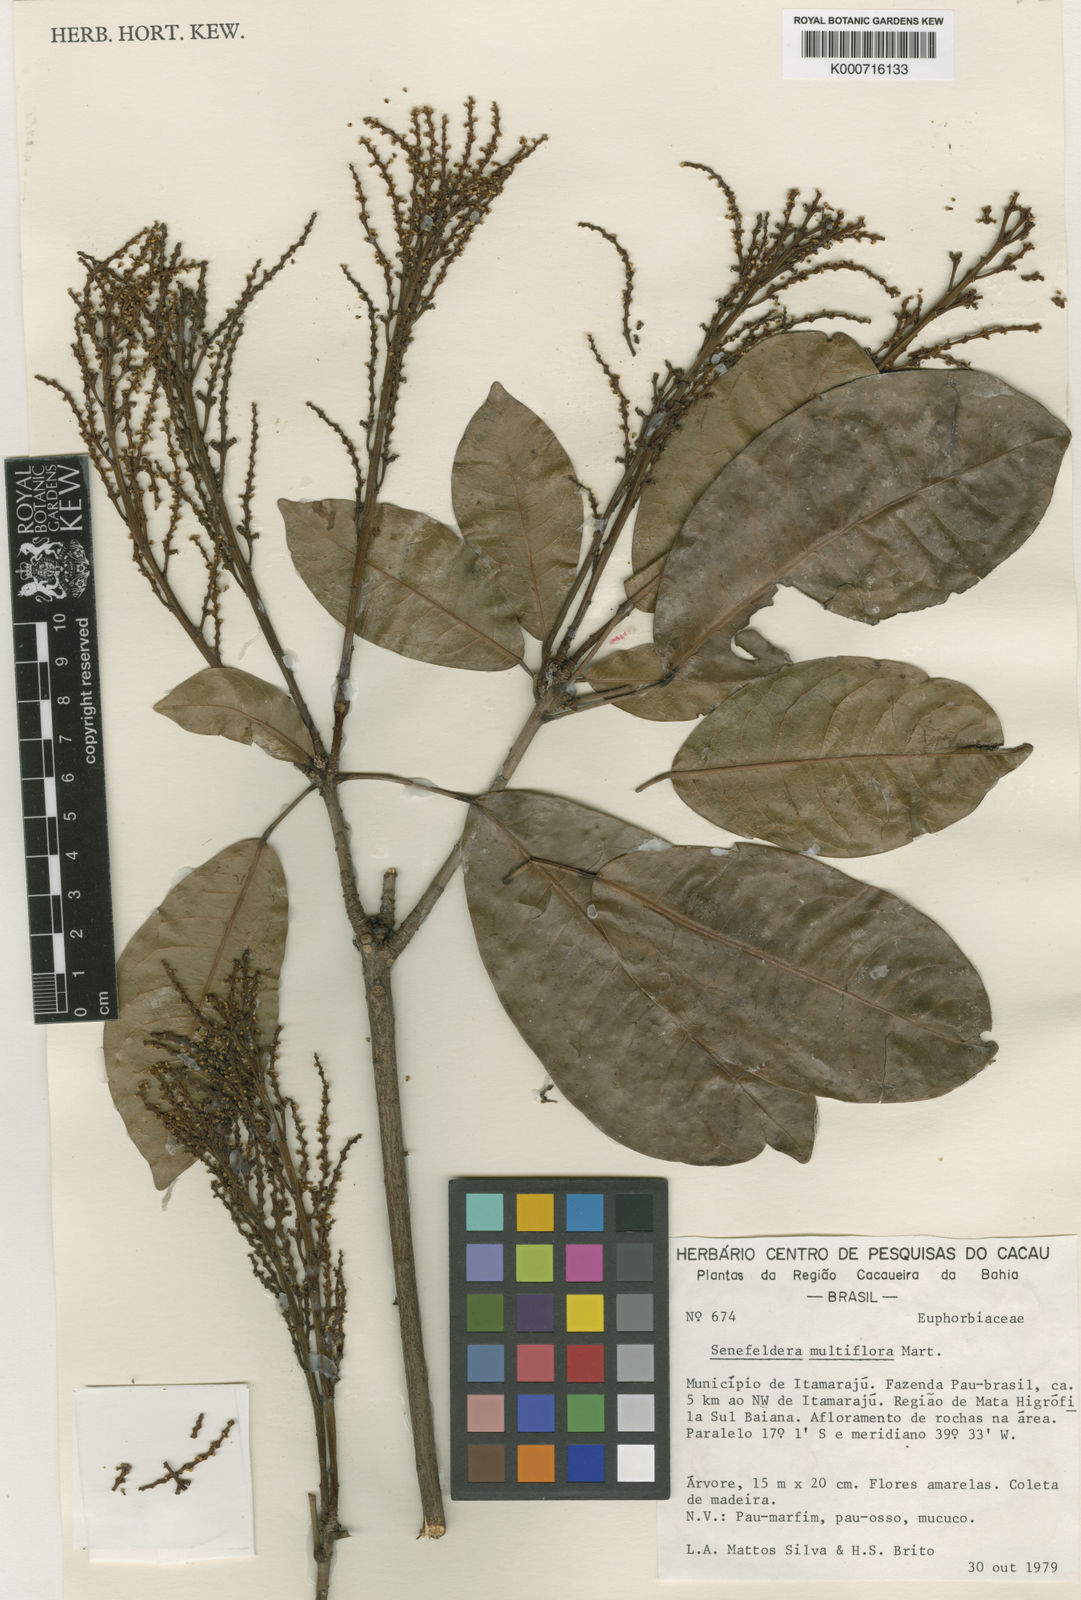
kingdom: Plantae
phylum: Tracheophyta
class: Magnoliopsida
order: Malpighiales
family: Euphorbiaceae
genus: Senefeldera
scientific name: Senefeldera verticillata
